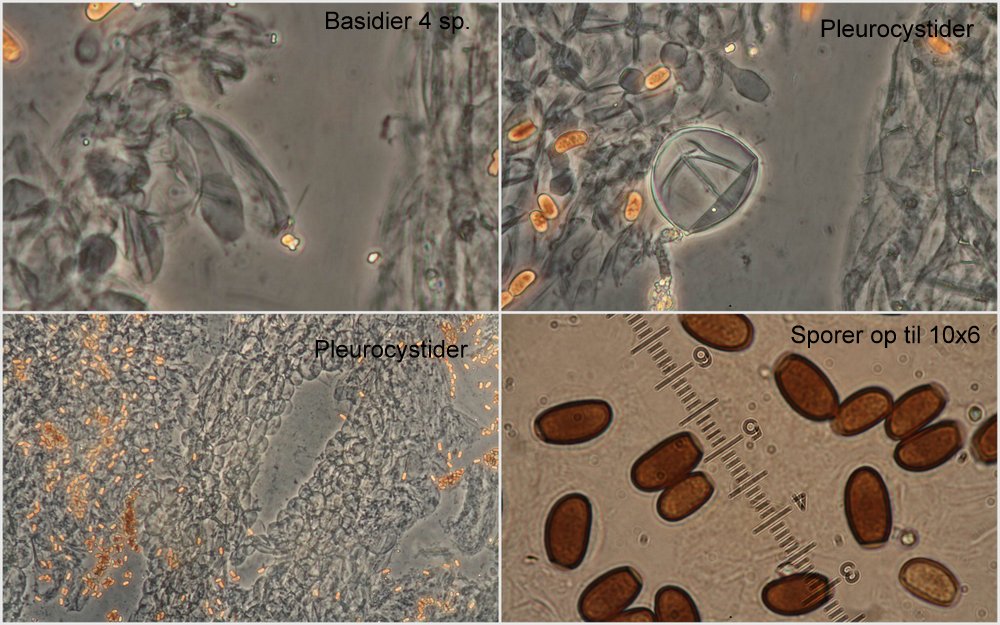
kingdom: Fungi
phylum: Basidiomycota
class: Agaricomycetes
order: Agaricales
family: Psathyrellaceae
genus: Coprinellus
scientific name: Coprinellus domesticus
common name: hus-blækhat
